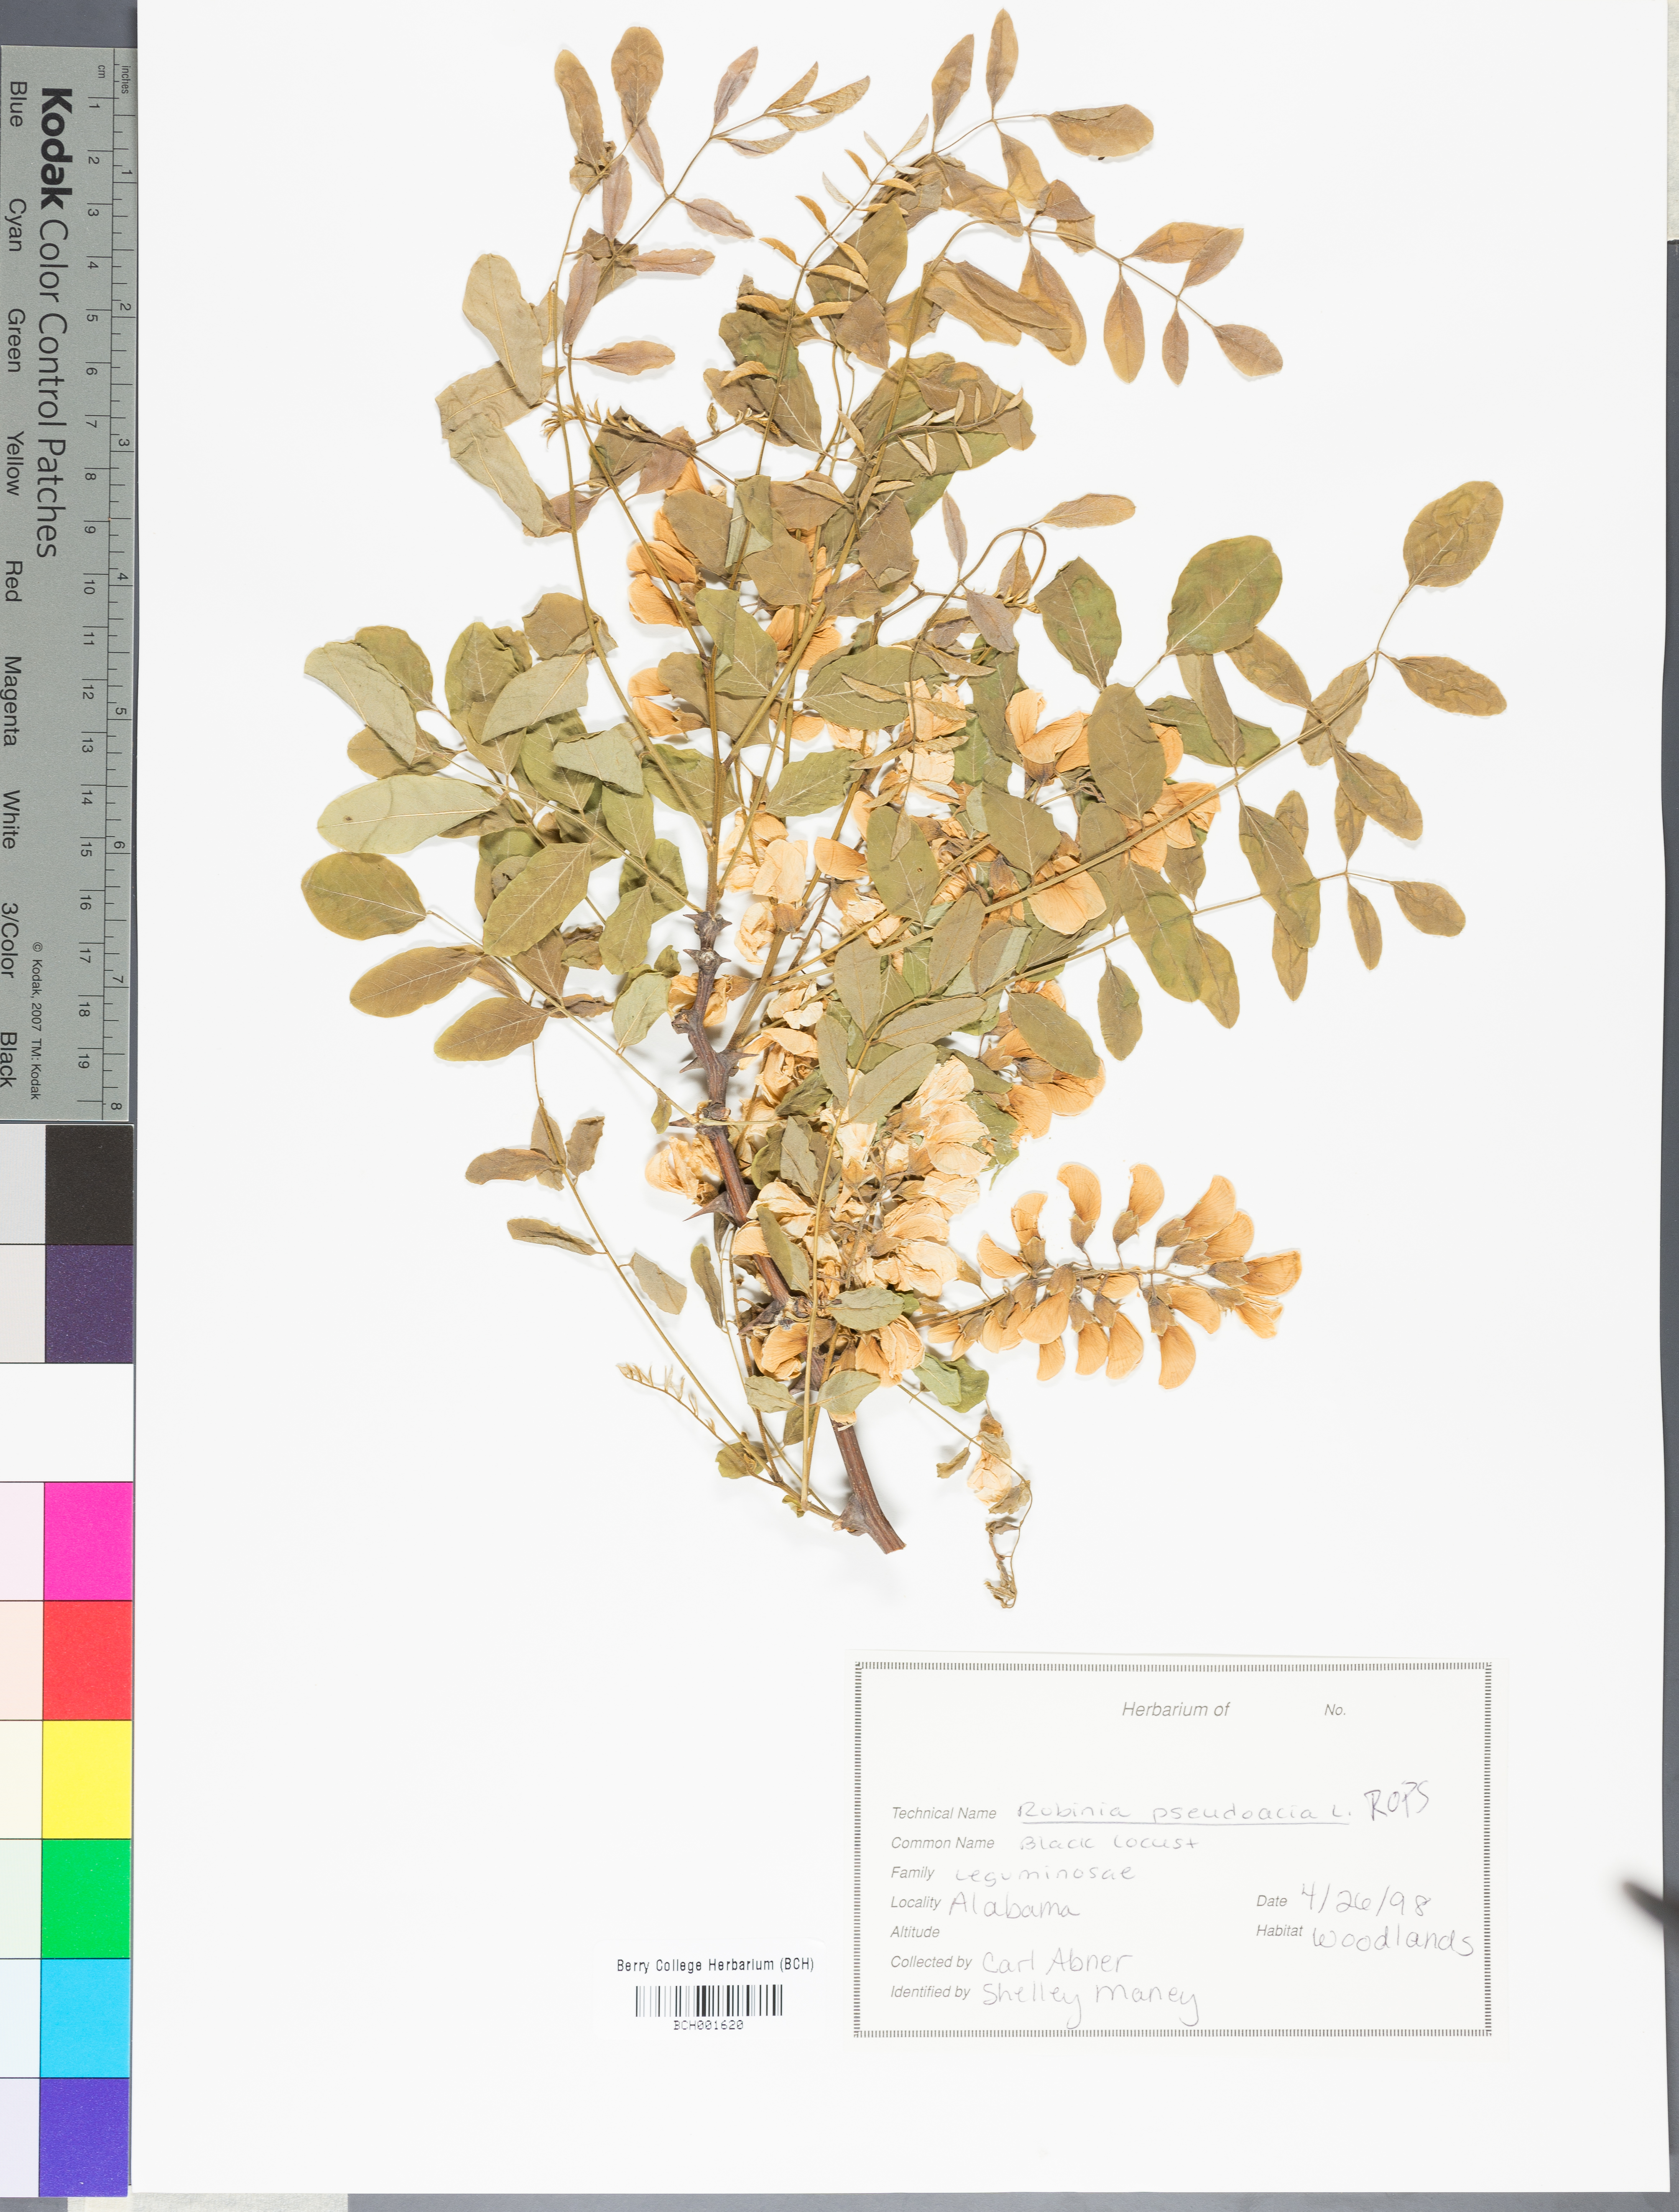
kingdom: Plantae
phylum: Tracheophyta
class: Magnoliopsida
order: Fabales
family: Fabaceae
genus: Robinia
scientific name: Robinia pseudoacacia
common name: Black locust
